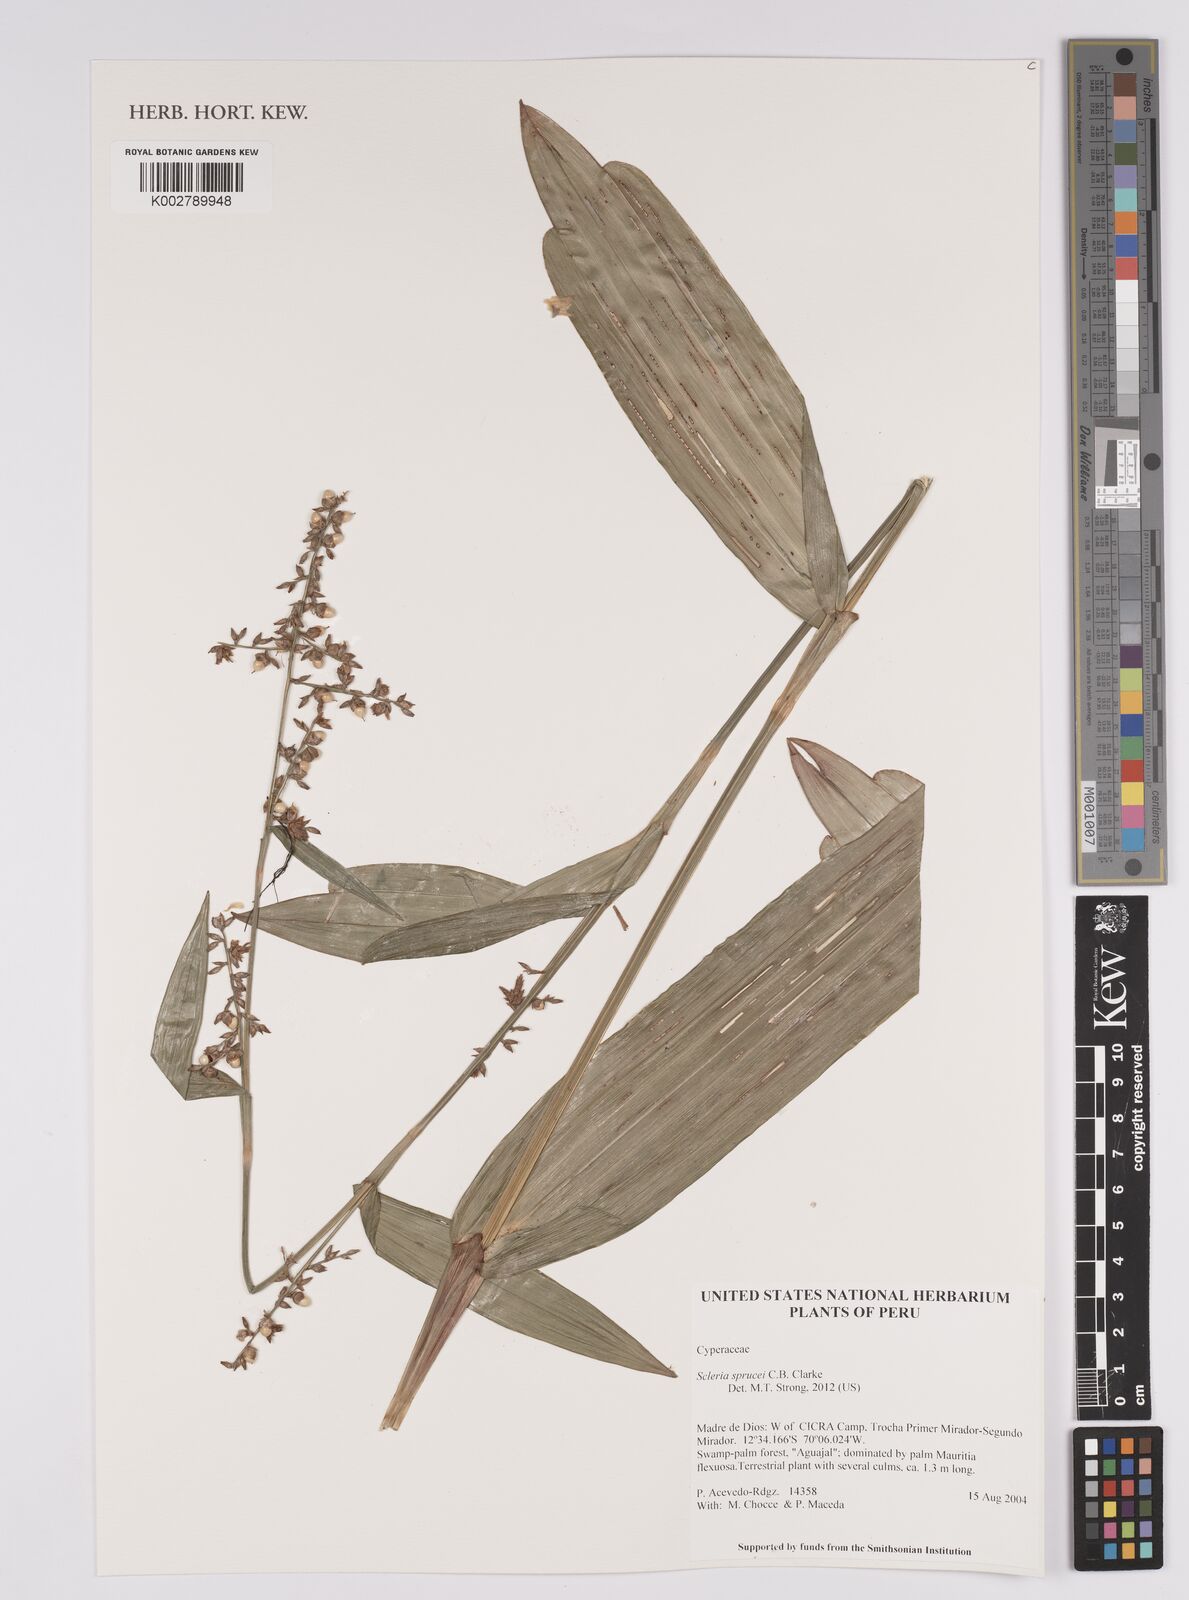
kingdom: Plantae
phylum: Tracheophyta
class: Liliopsida
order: Poales
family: Cyperaceae
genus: Scleria
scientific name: Scleria sprucei
